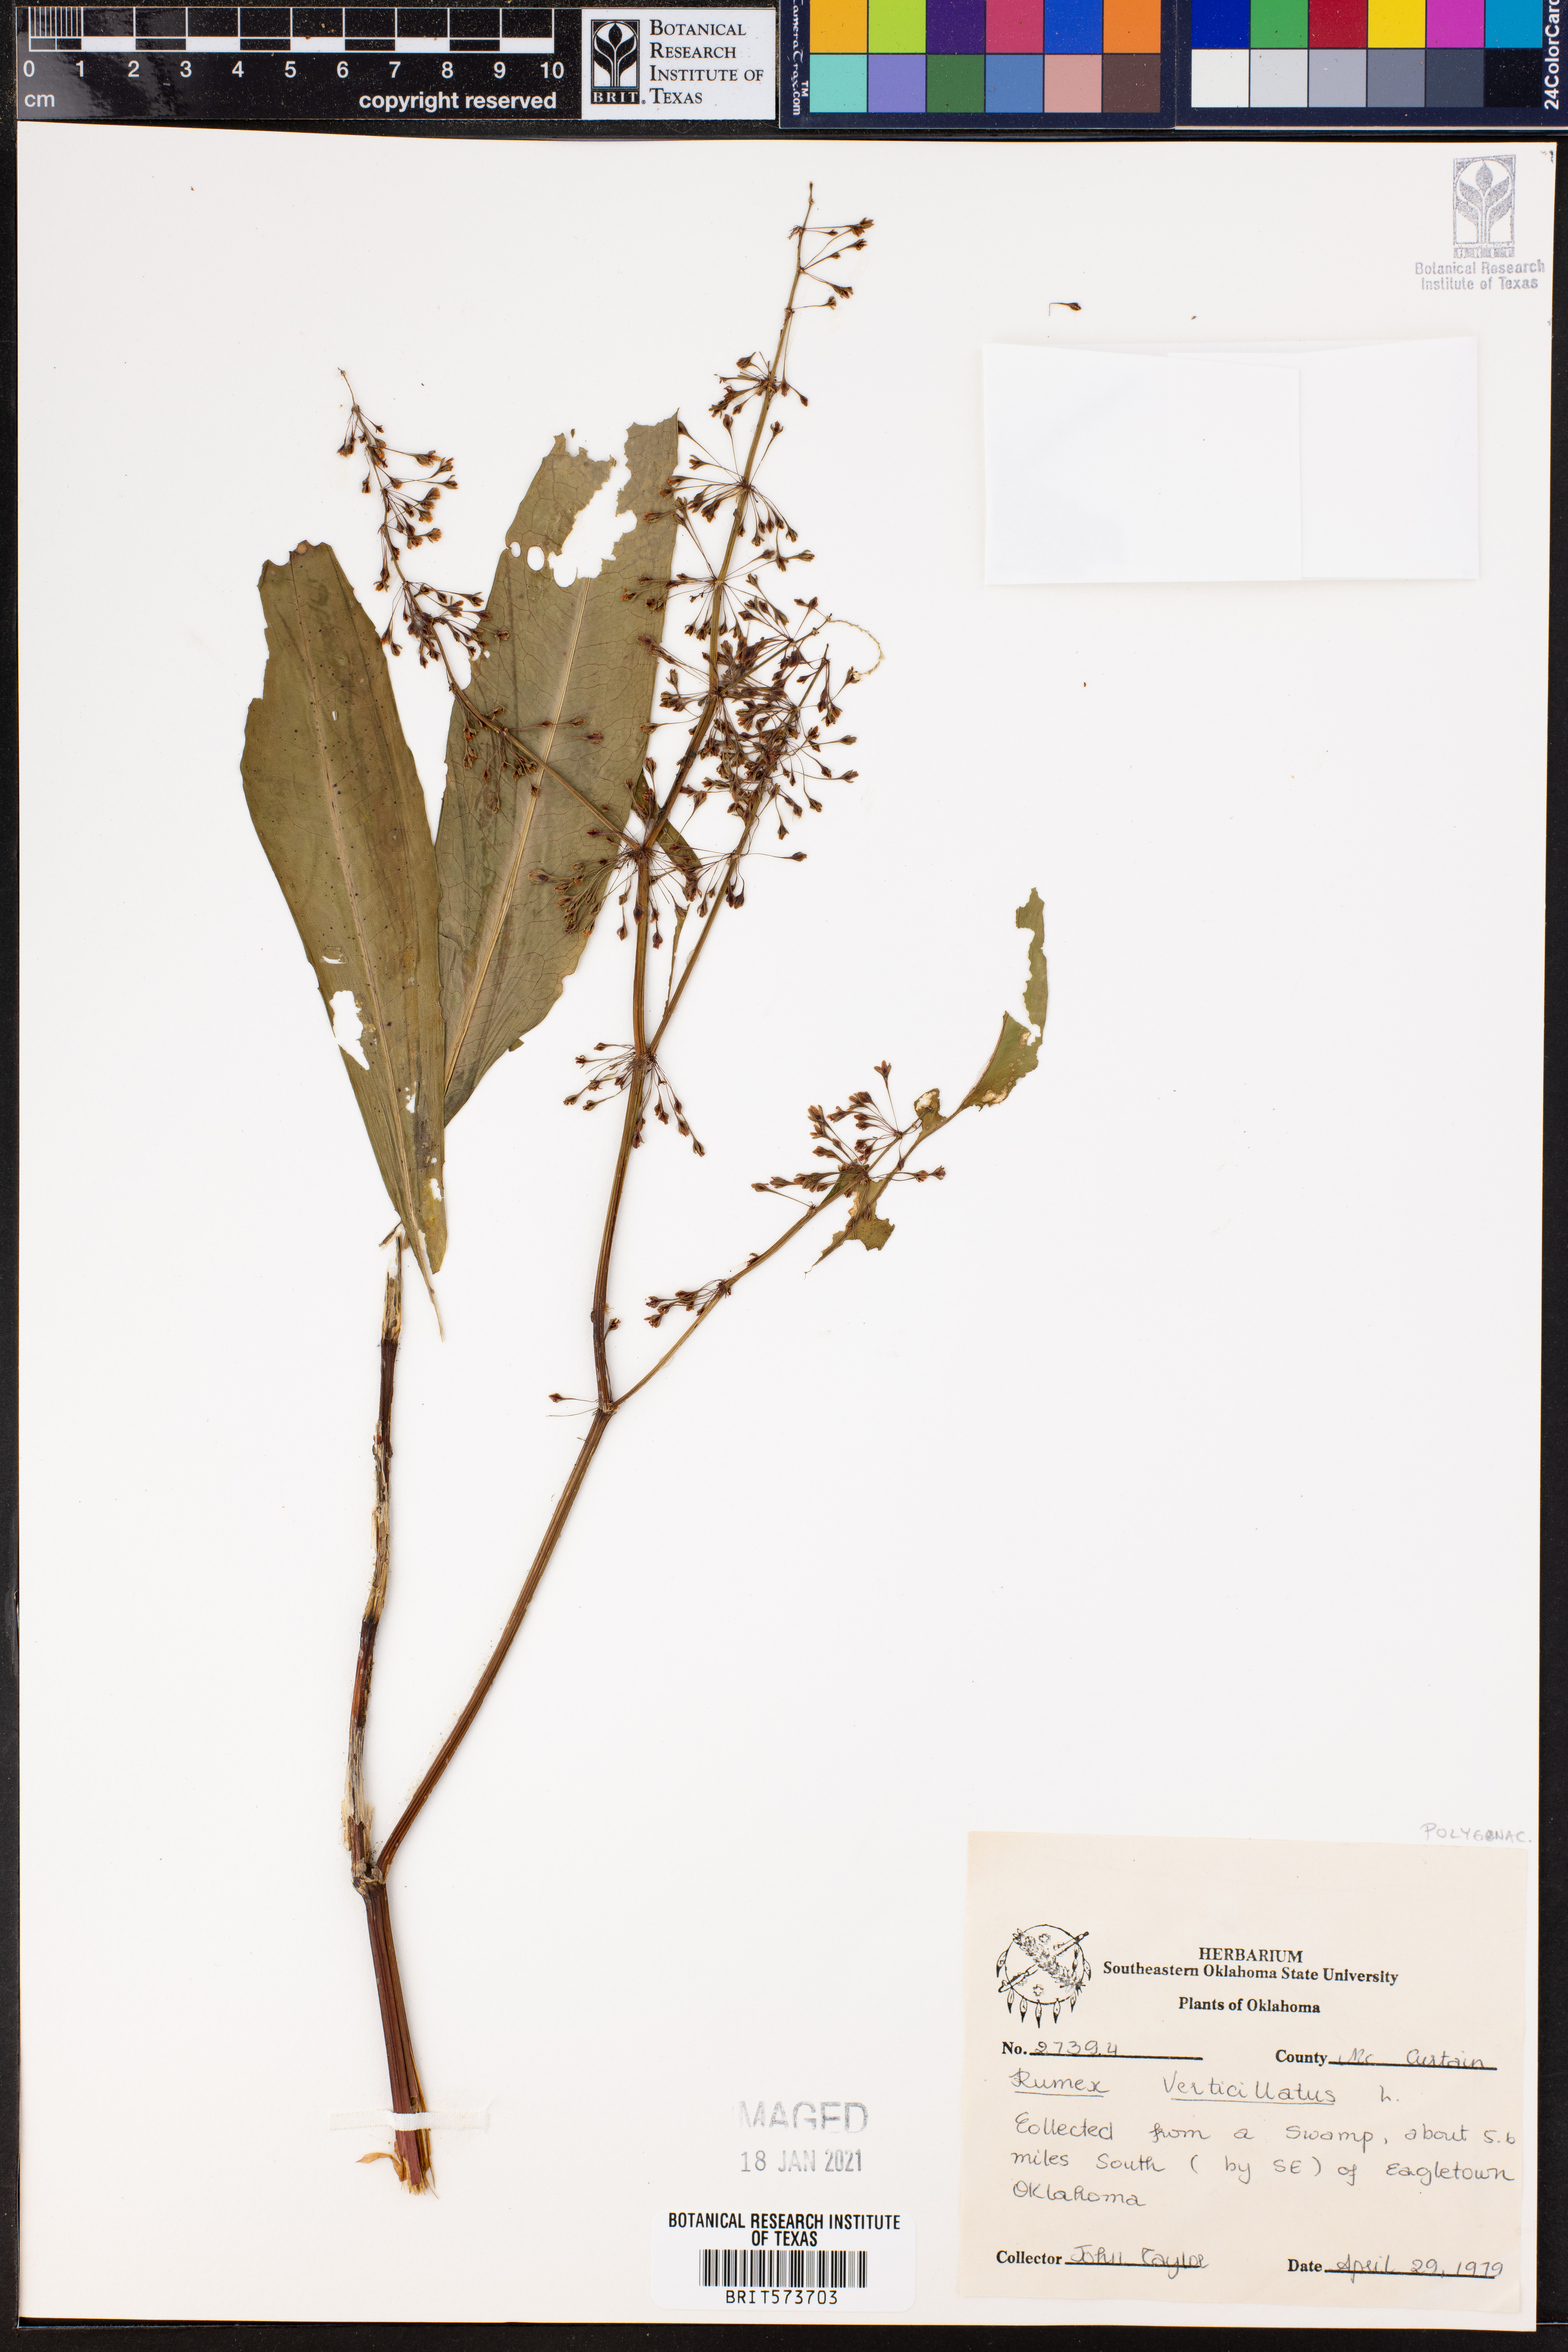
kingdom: Plantae
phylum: Tracheophyta
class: Magnoliopsida
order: Caryophyllales
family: Polygonaceae
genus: Rumex
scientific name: Rumex verticillatus
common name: Swamp dock
